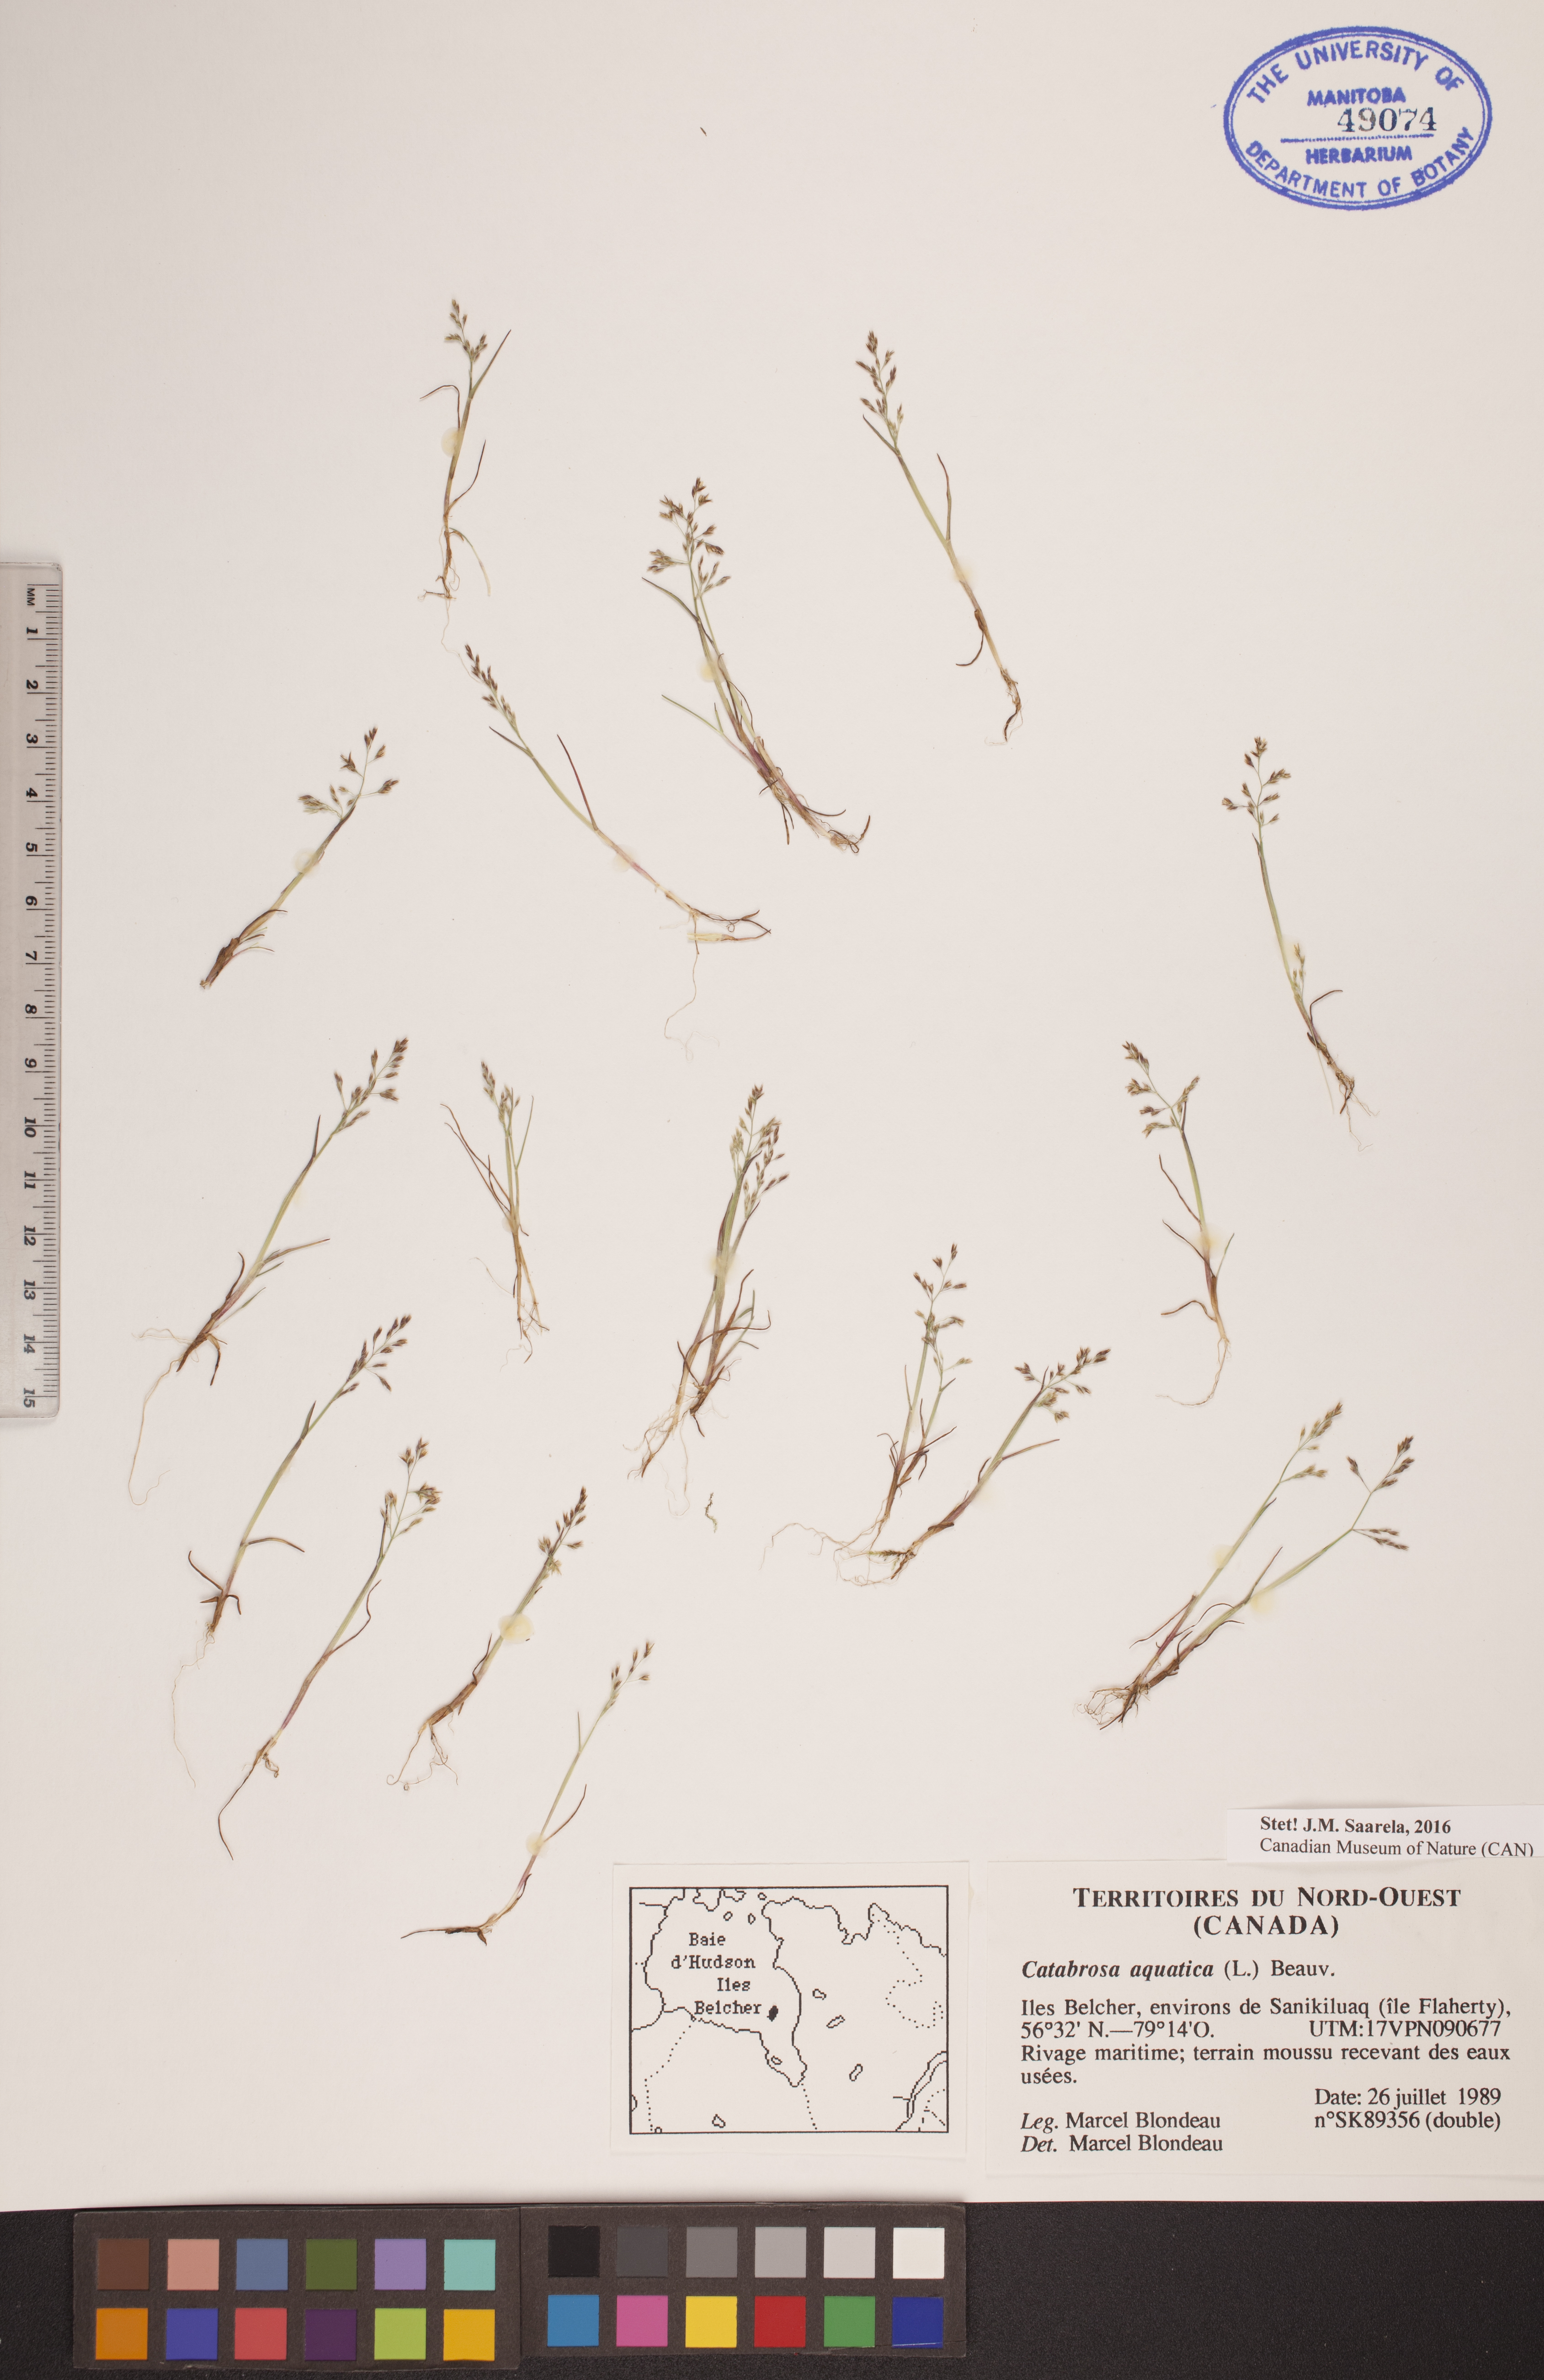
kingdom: Plantae
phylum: Tracheophyta
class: Liliopsida
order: Poales
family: Poaceae
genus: Catabrosa
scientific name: Catabrosa aquatica
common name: Whorl-grass
